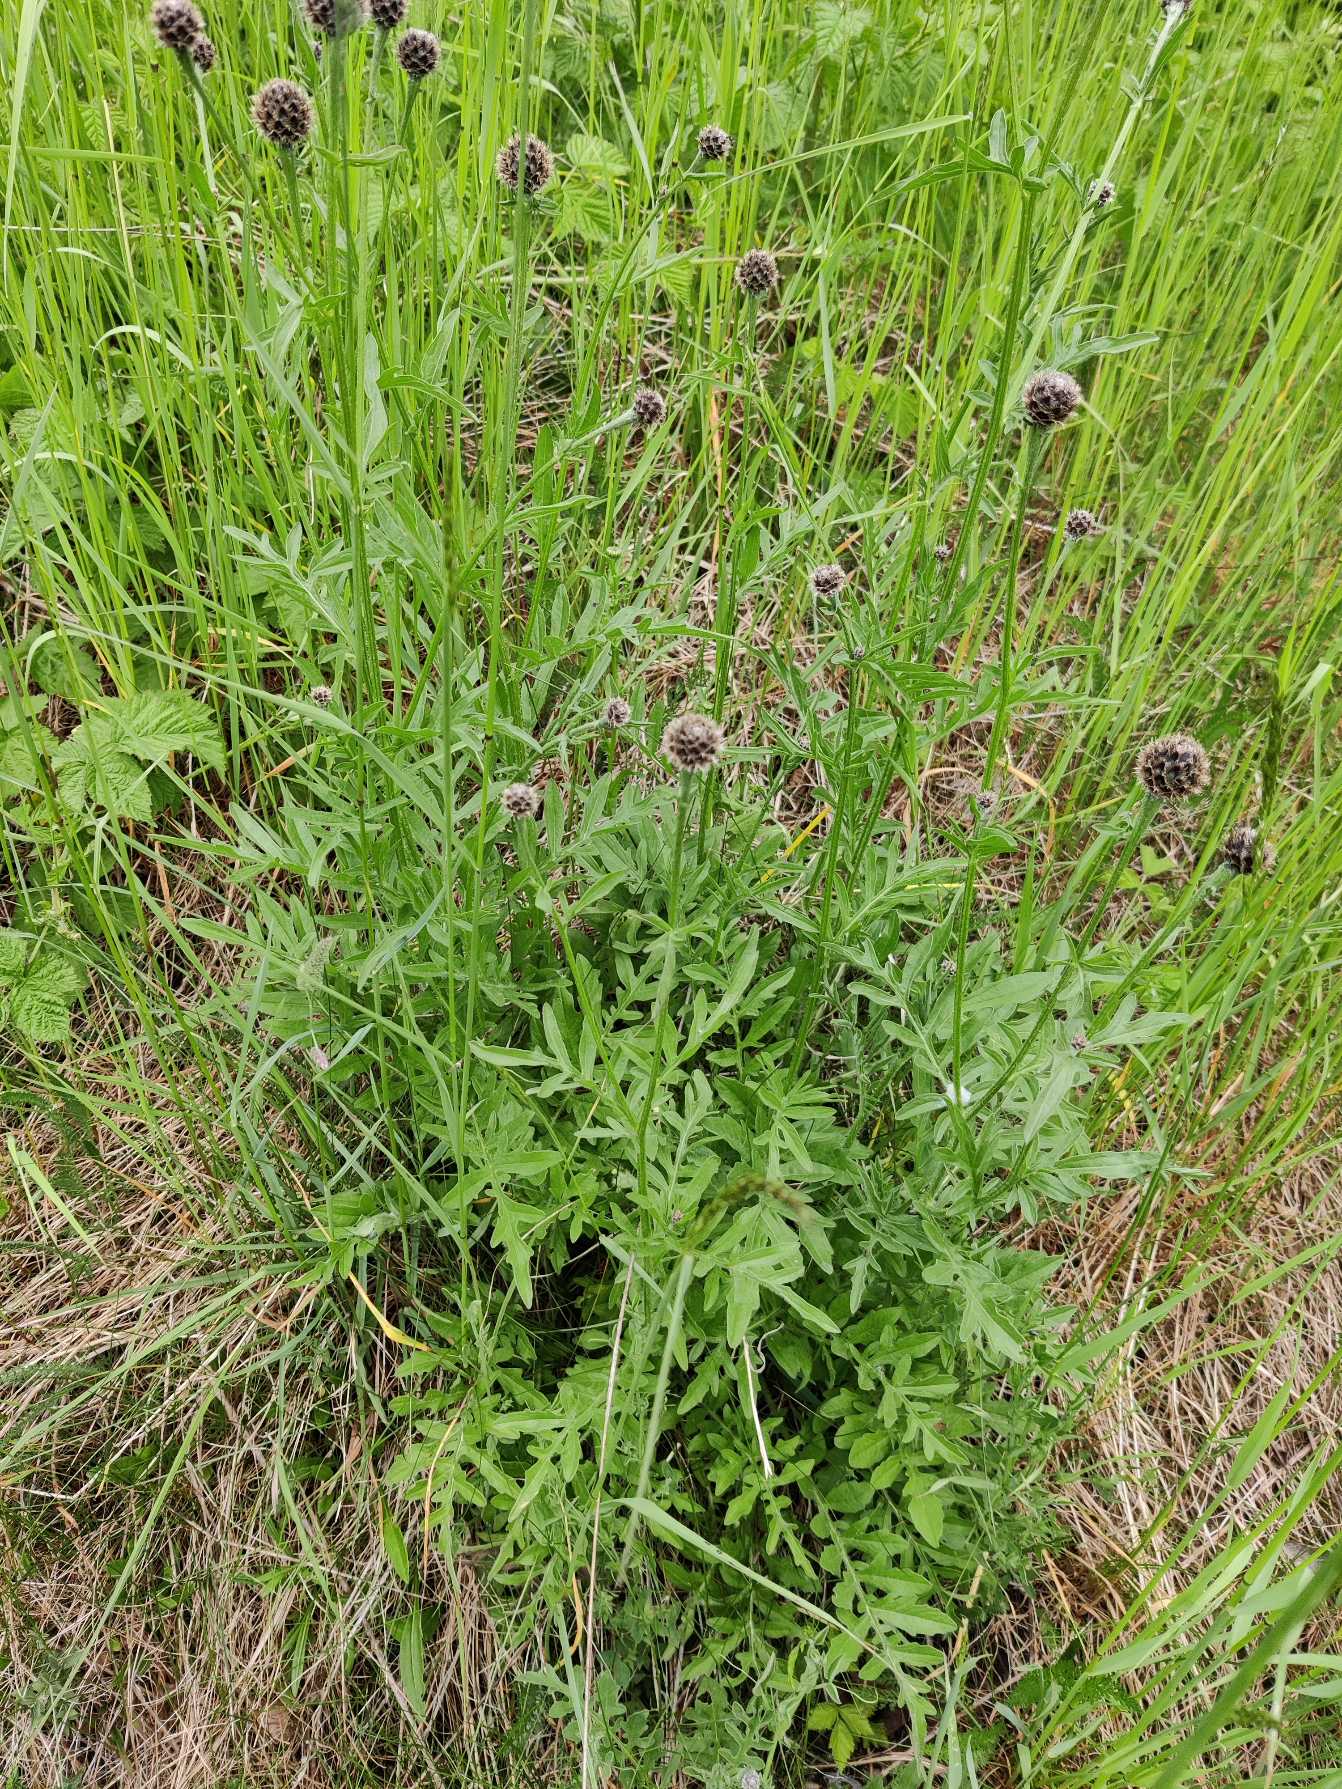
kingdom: Plantae
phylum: Tracheophyta
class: Magnoliopsida
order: Asterales
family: Asteraceae
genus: Centaurea
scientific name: Centaurea scabiosa
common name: Stor knopurt
